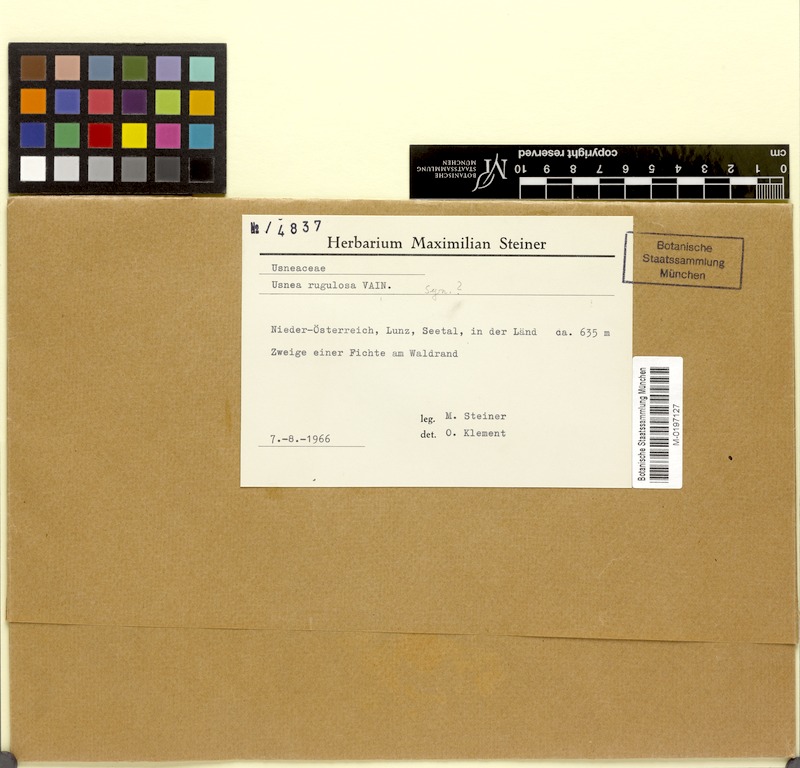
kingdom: Fungi
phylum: Ascomycota
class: Lecanoromycetes
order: Lecanorales
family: Parmeliaceae
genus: Usnea
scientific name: Usnea barbata
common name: Old man's beard lichen
